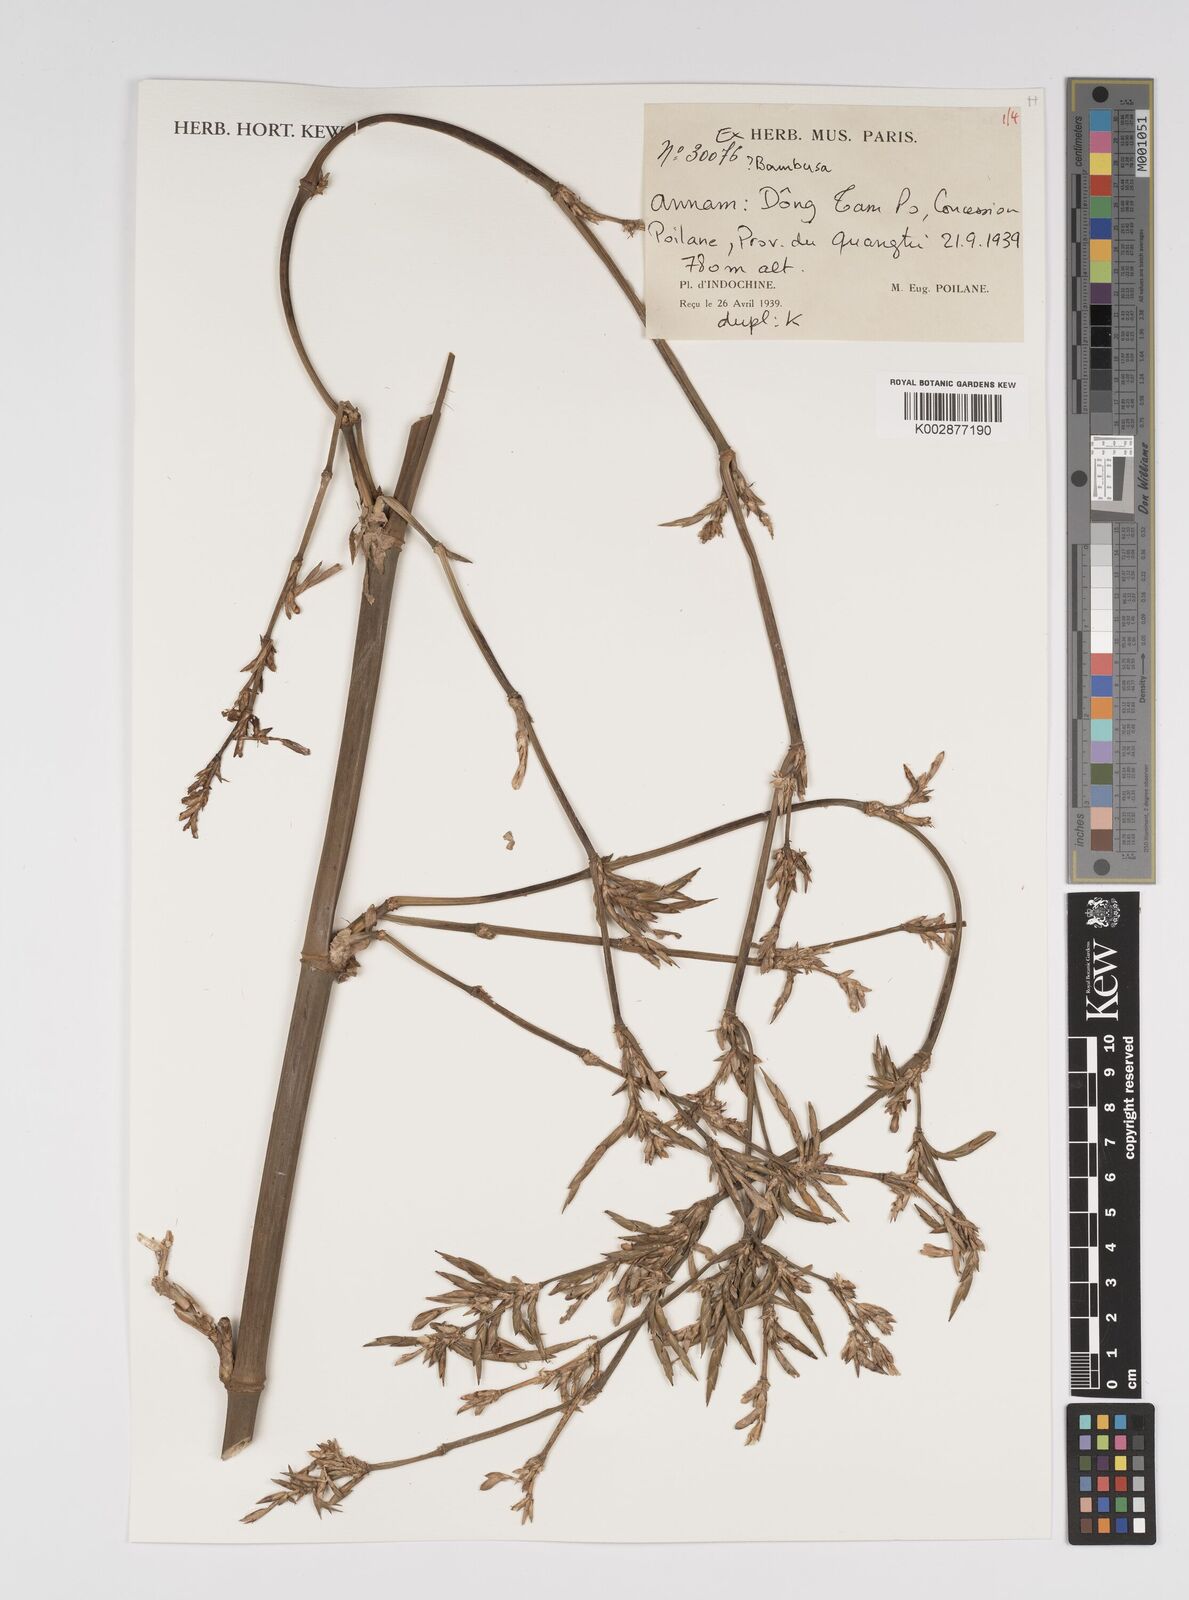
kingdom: Plantae
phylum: Tracheophyta
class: Liliopsida
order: Poales
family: Poaceae
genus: Bambusa
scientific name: Bambusa
